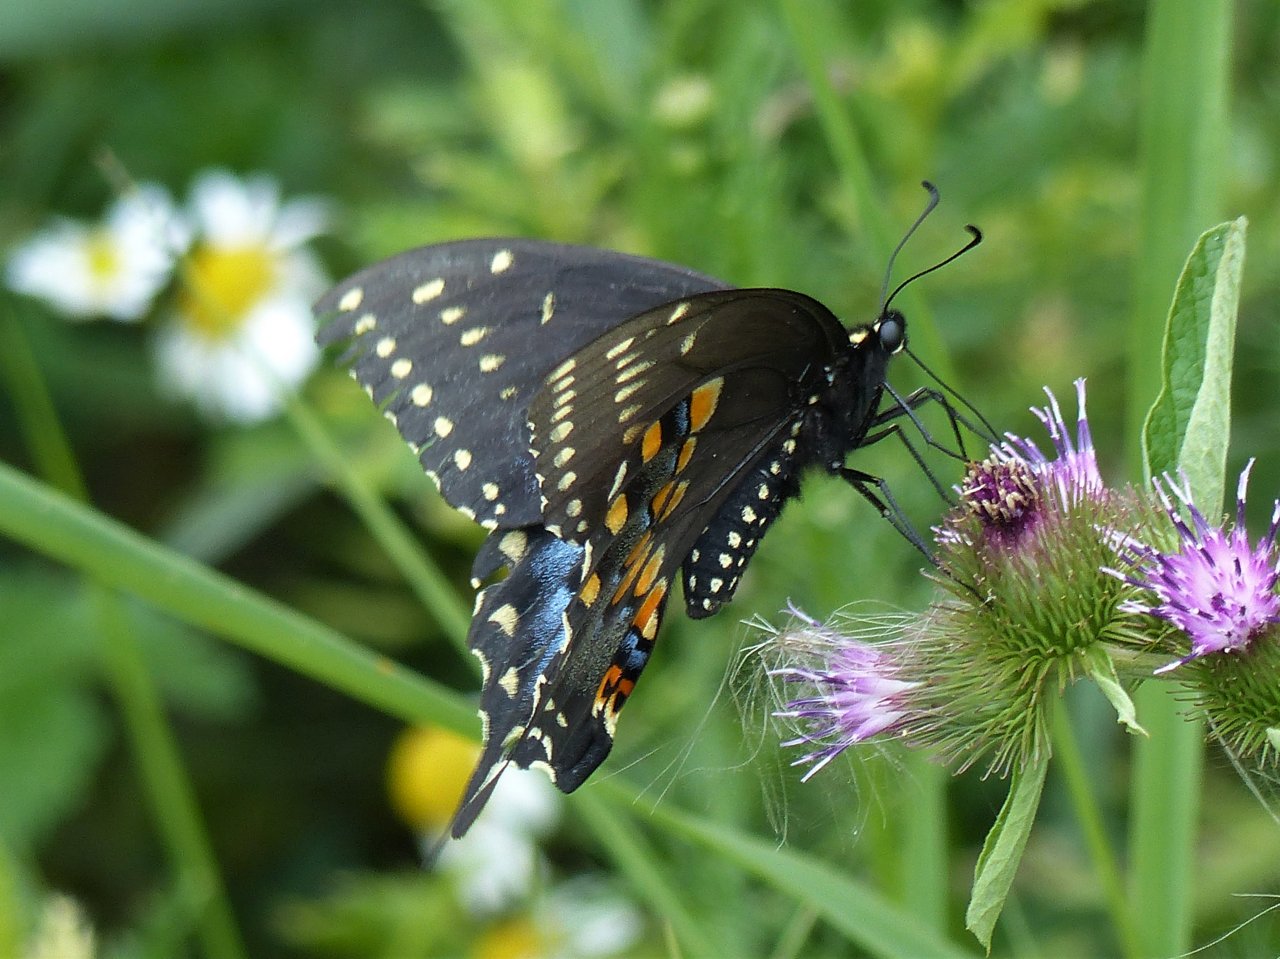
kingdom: Animalia
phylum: Arthropoda
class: Insecta
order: Lepidoptera
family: Papilionidae
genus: Papilio
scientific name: Papilio polyxenes
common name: Black Swallowtail
